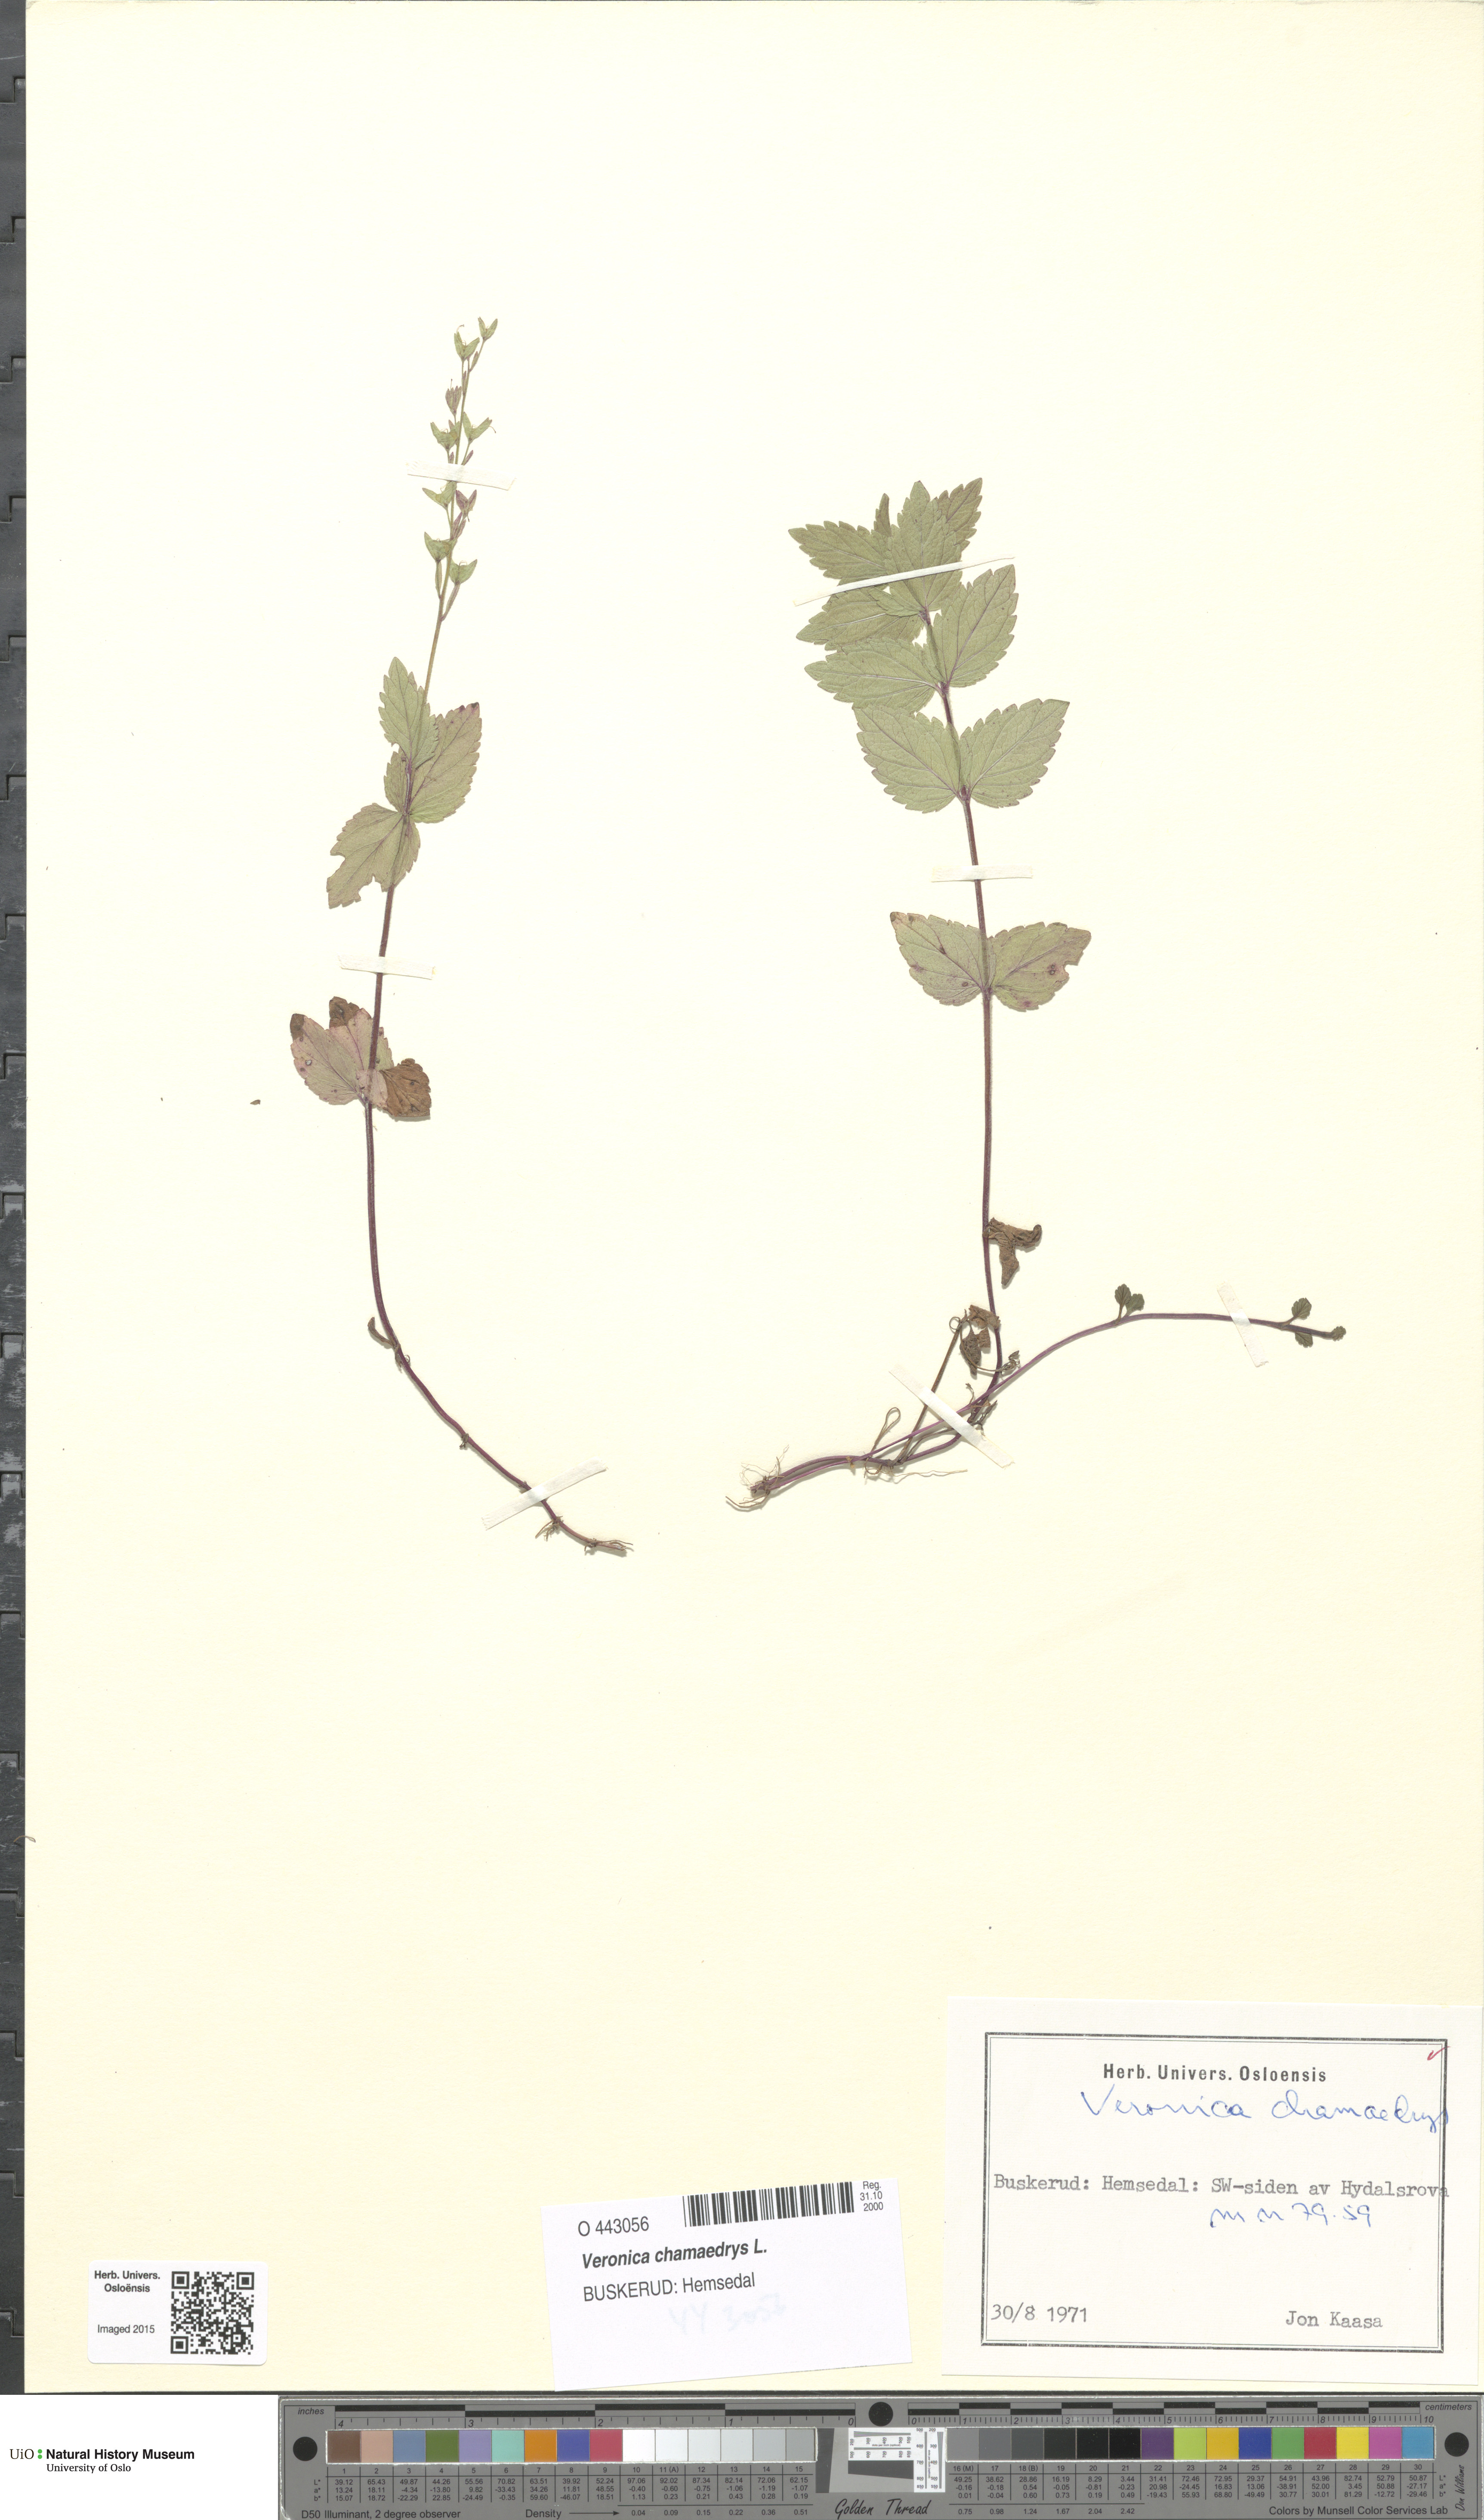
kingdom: Plantae
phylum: Tracheophyta
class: Magnoliopsida
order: Lamiales
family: Plantaginaceae
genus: Veronica
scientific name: Veronica chamaedrys
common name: Germander speedwell
